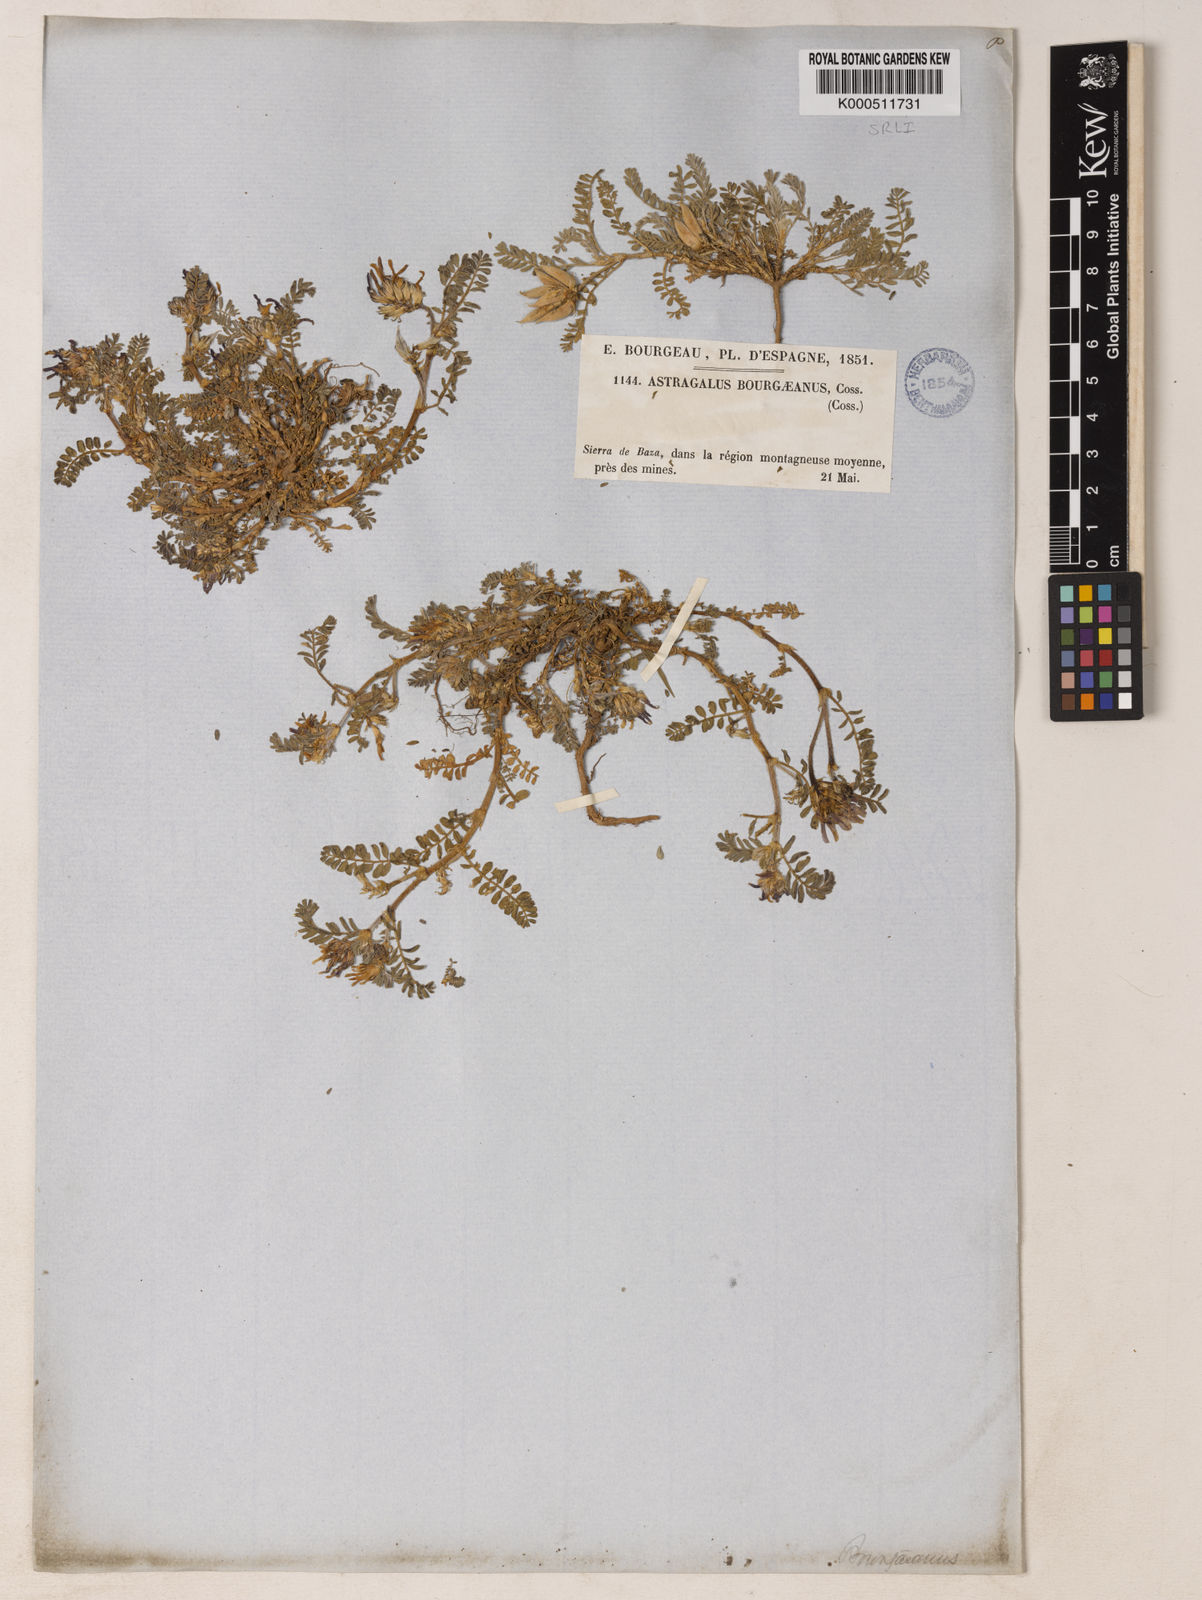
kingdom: Plantae
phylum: Tracheophyta
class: Magnoliopsida
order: Fabales
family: Fabaceae
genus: Astragalus
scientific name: Astragalus bourgaeanus
